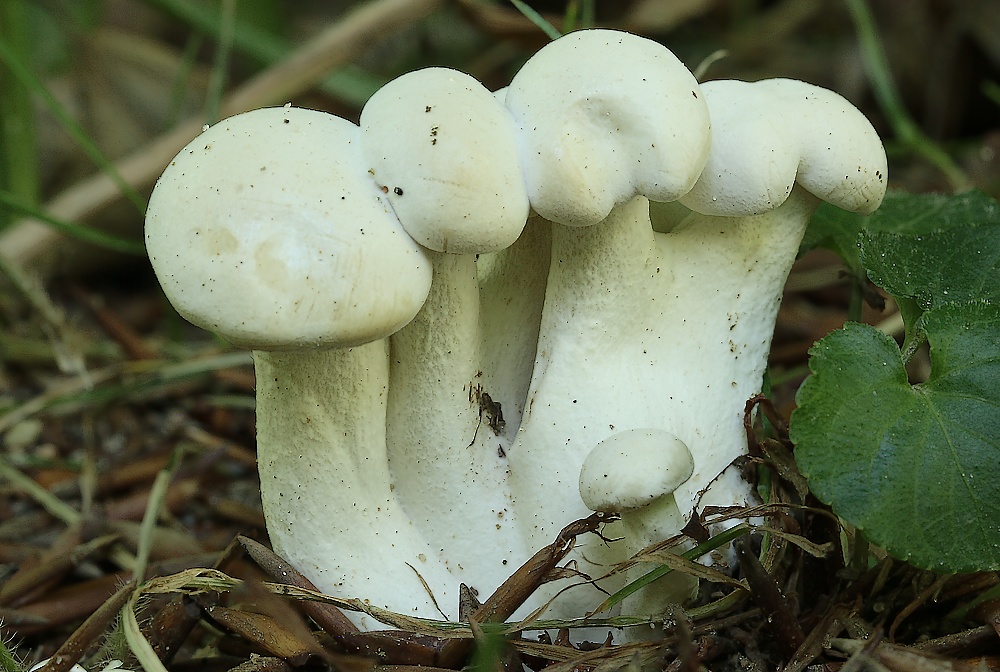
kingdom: Fungi
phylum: Basidiomycota
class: Agaricomycetes
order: Agaricales
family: Tricholomataceae
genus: Leucocybe
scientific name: Leucocybe connata
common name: knippe-tragthat
